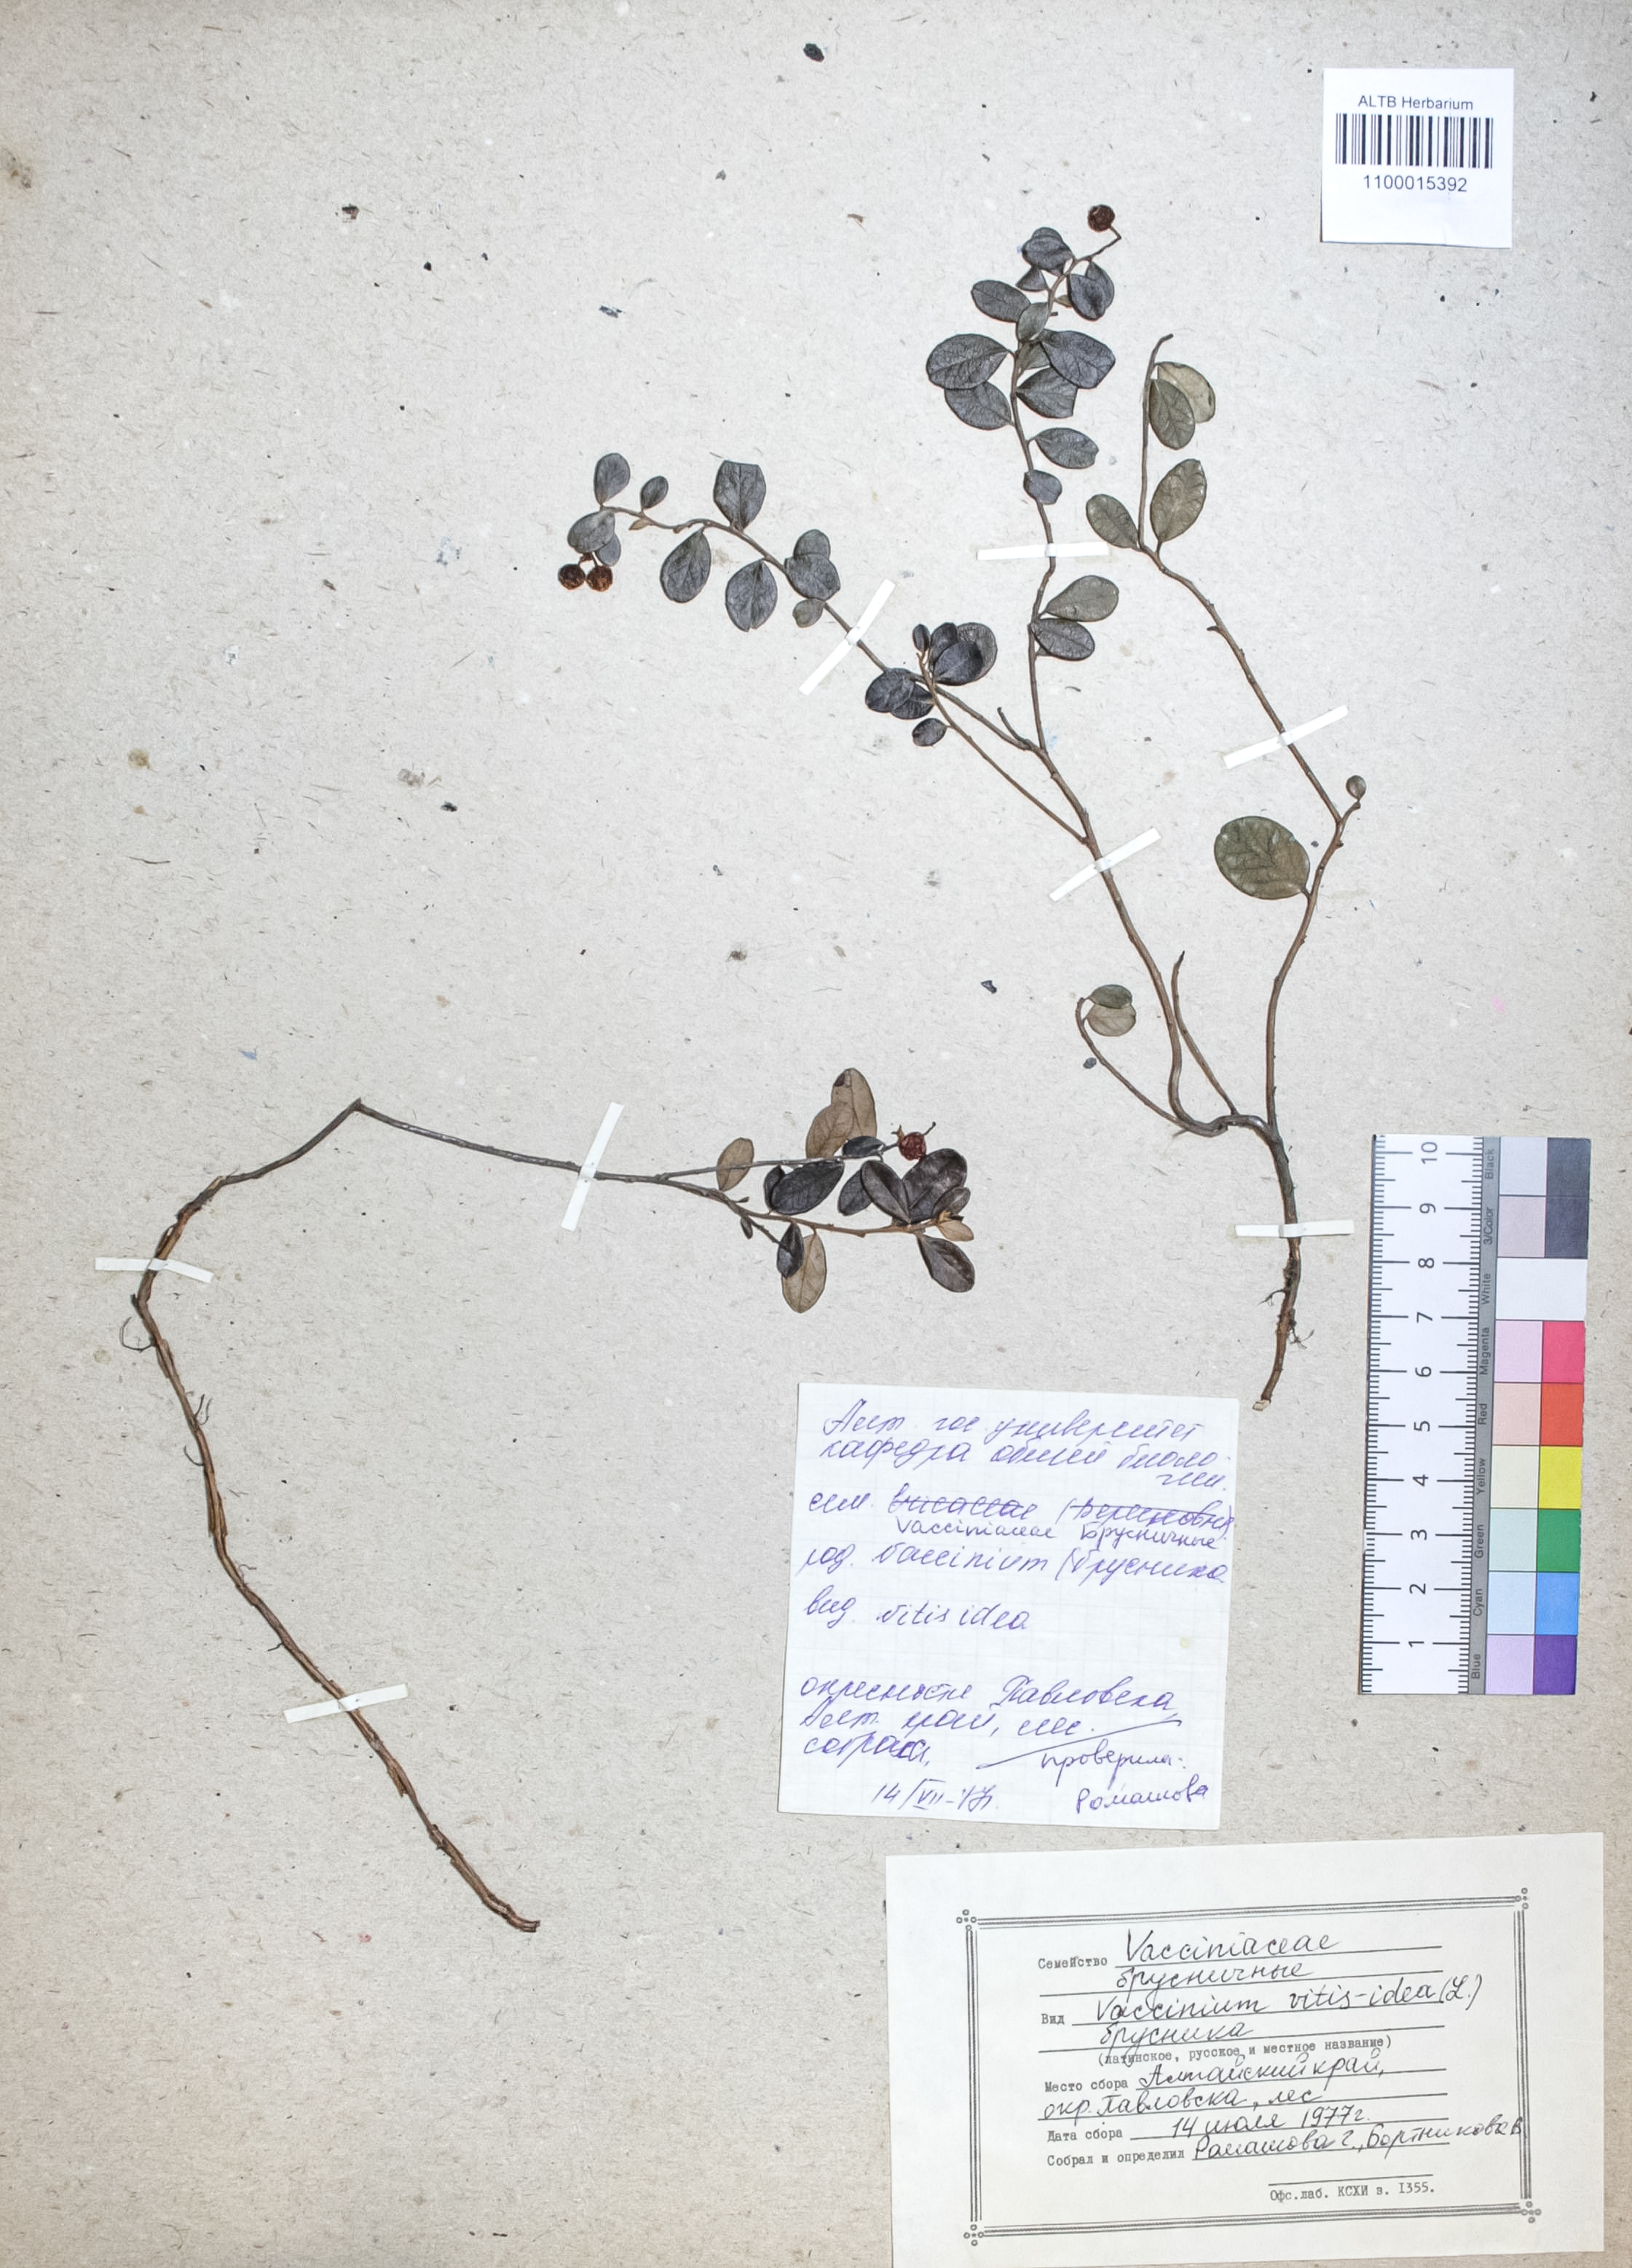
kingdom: Plantae
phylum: Tracheophyta
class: Magnoliopsida
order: Ericales
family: Ericaceae
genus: Vaccinium
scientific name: Vaccinium vitis-idaea
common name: Cowberry
